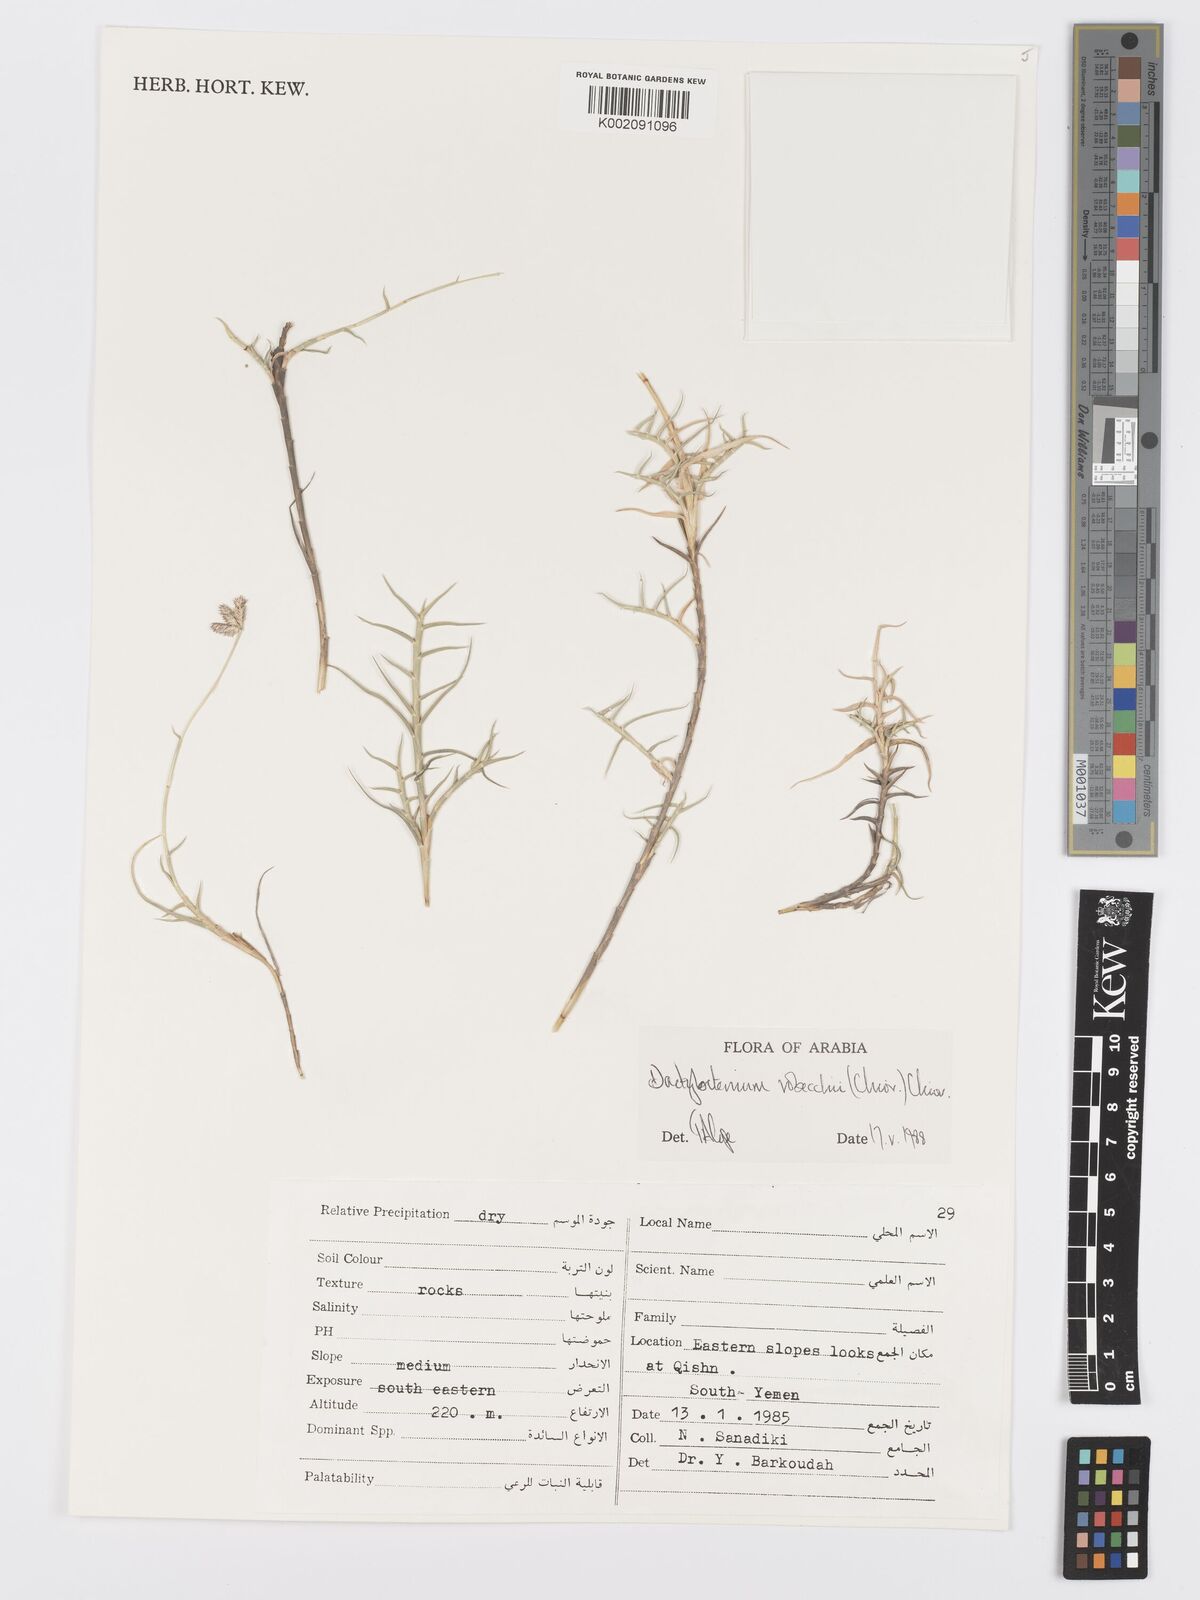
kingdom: Plantae
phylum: Tracheophyta
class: Liliopsida
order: Poales
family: Poaceae
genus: Dactyloctenium
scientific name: Dactyloctenium robecchii
